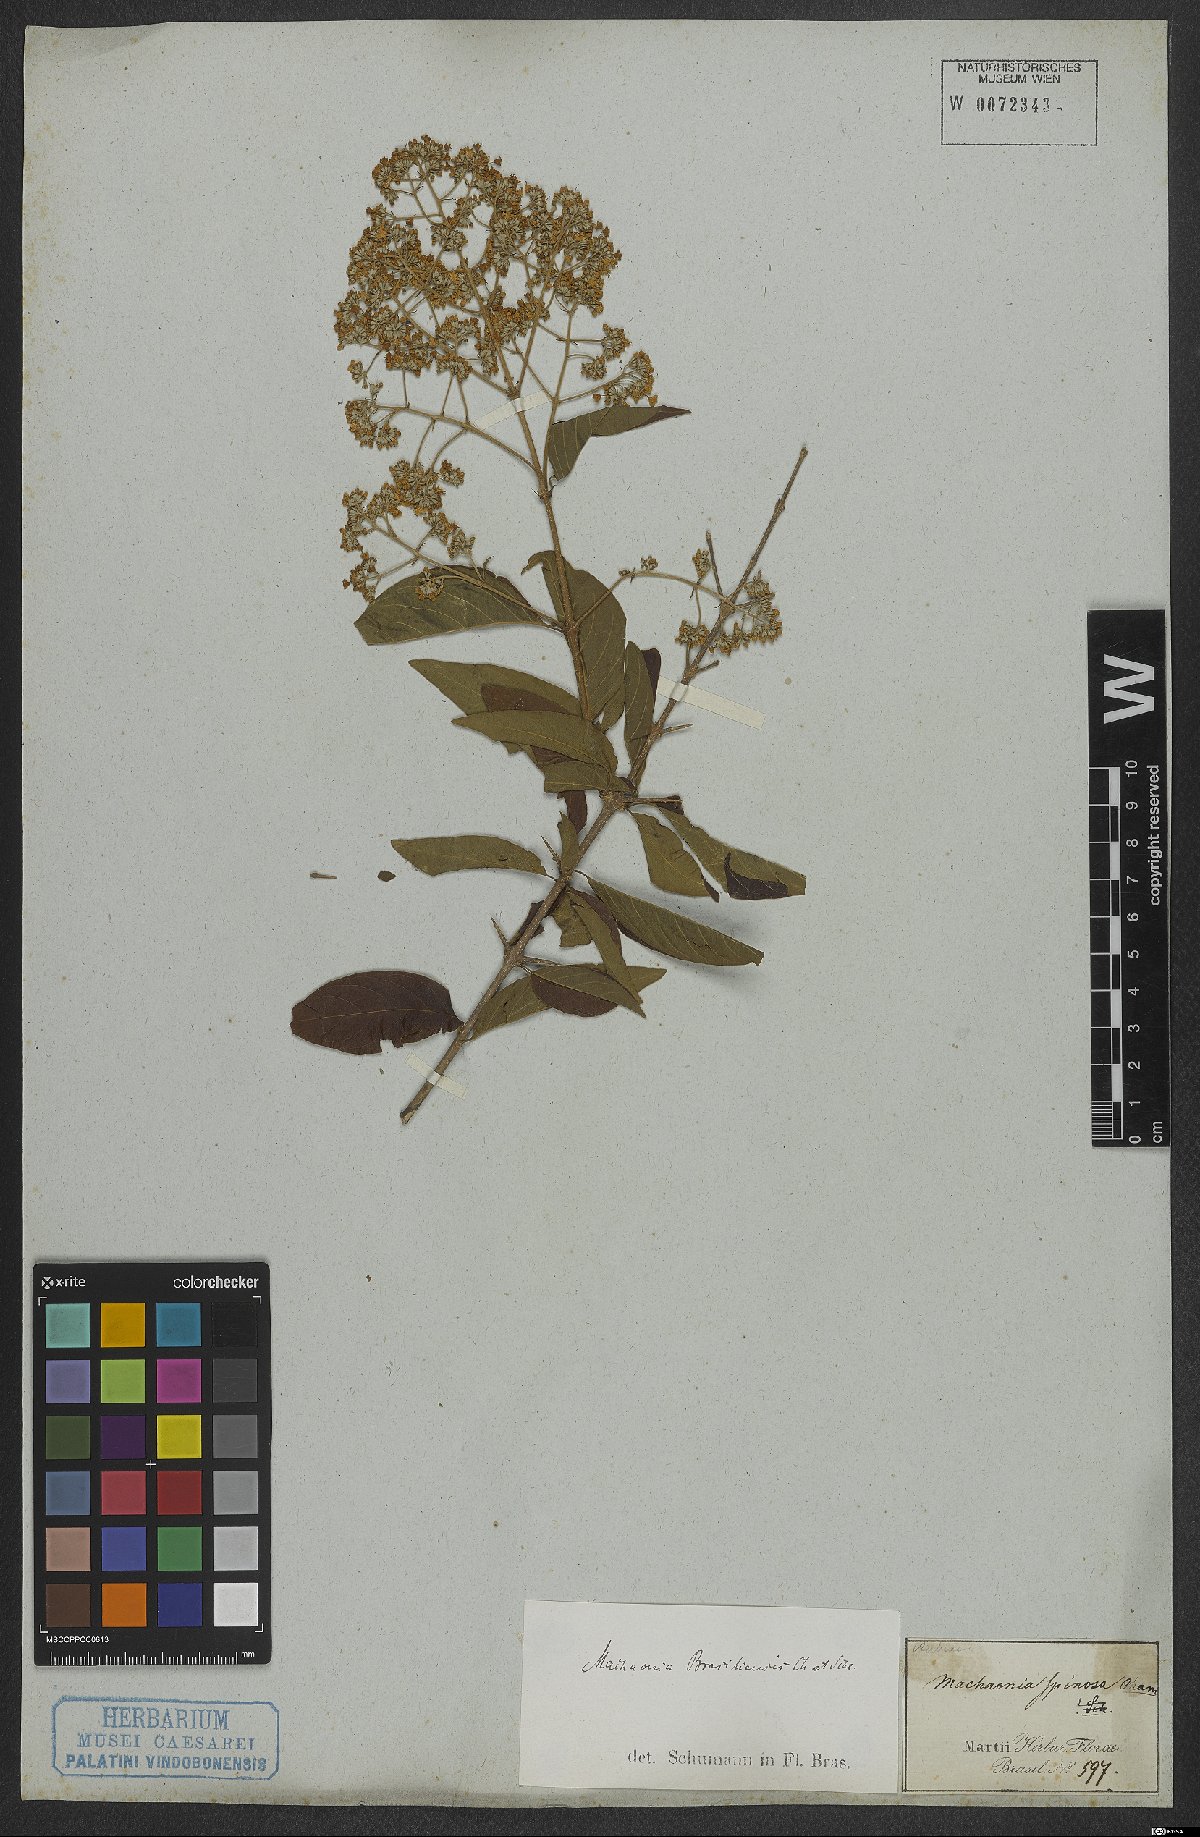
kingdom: Plantae
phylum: Tracheophyta
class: Magnoliopsida
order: Gentianales
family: Rubiaceae
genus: Machaonia
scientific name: Machaonia brasiliensis
